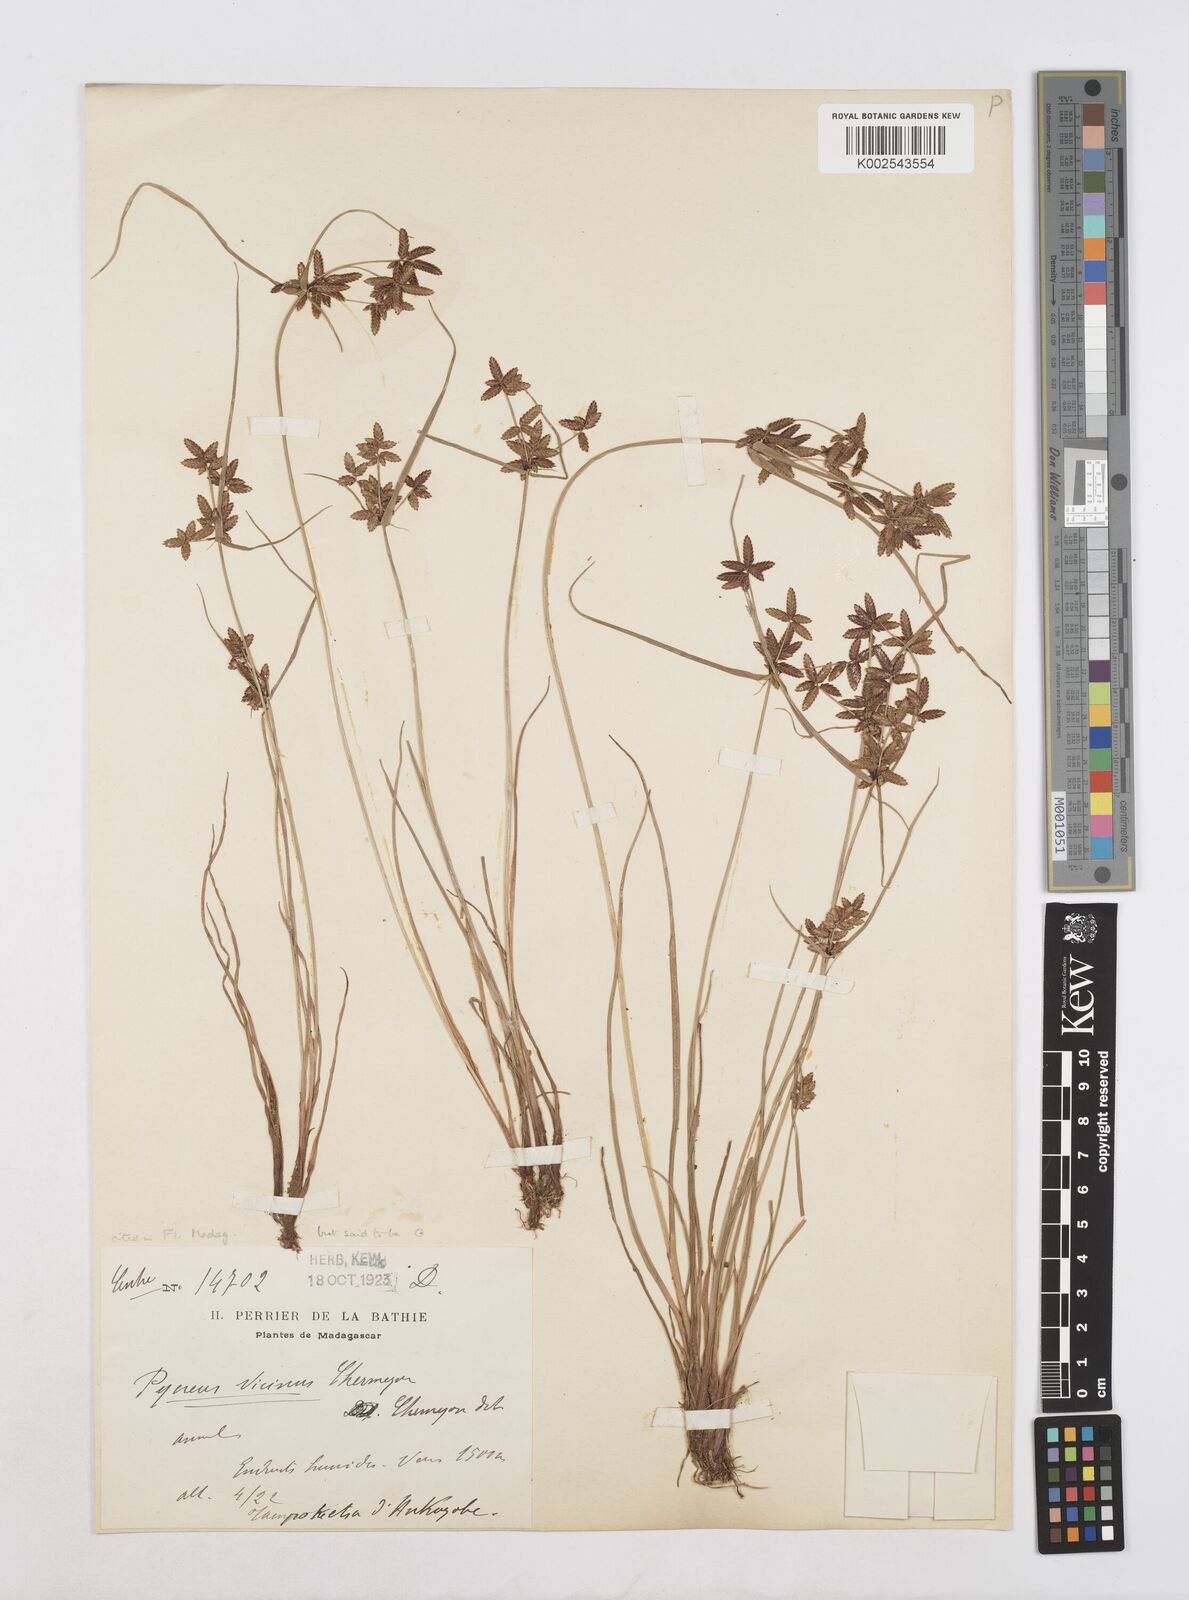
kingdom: Plantae
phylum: Tracheophyta
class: Liliopsida
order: Poales
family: Cyperaceae
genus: Cyperus
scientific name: Cyperus
